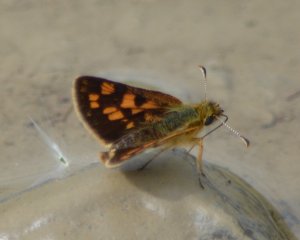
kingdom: Animalia
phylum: Arthropoda
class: Insecta
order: Lepidoptera
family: Hesperiidae
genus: Carterocephalus
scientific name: Carterocephalus palaemon
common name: Chequered Skipper
